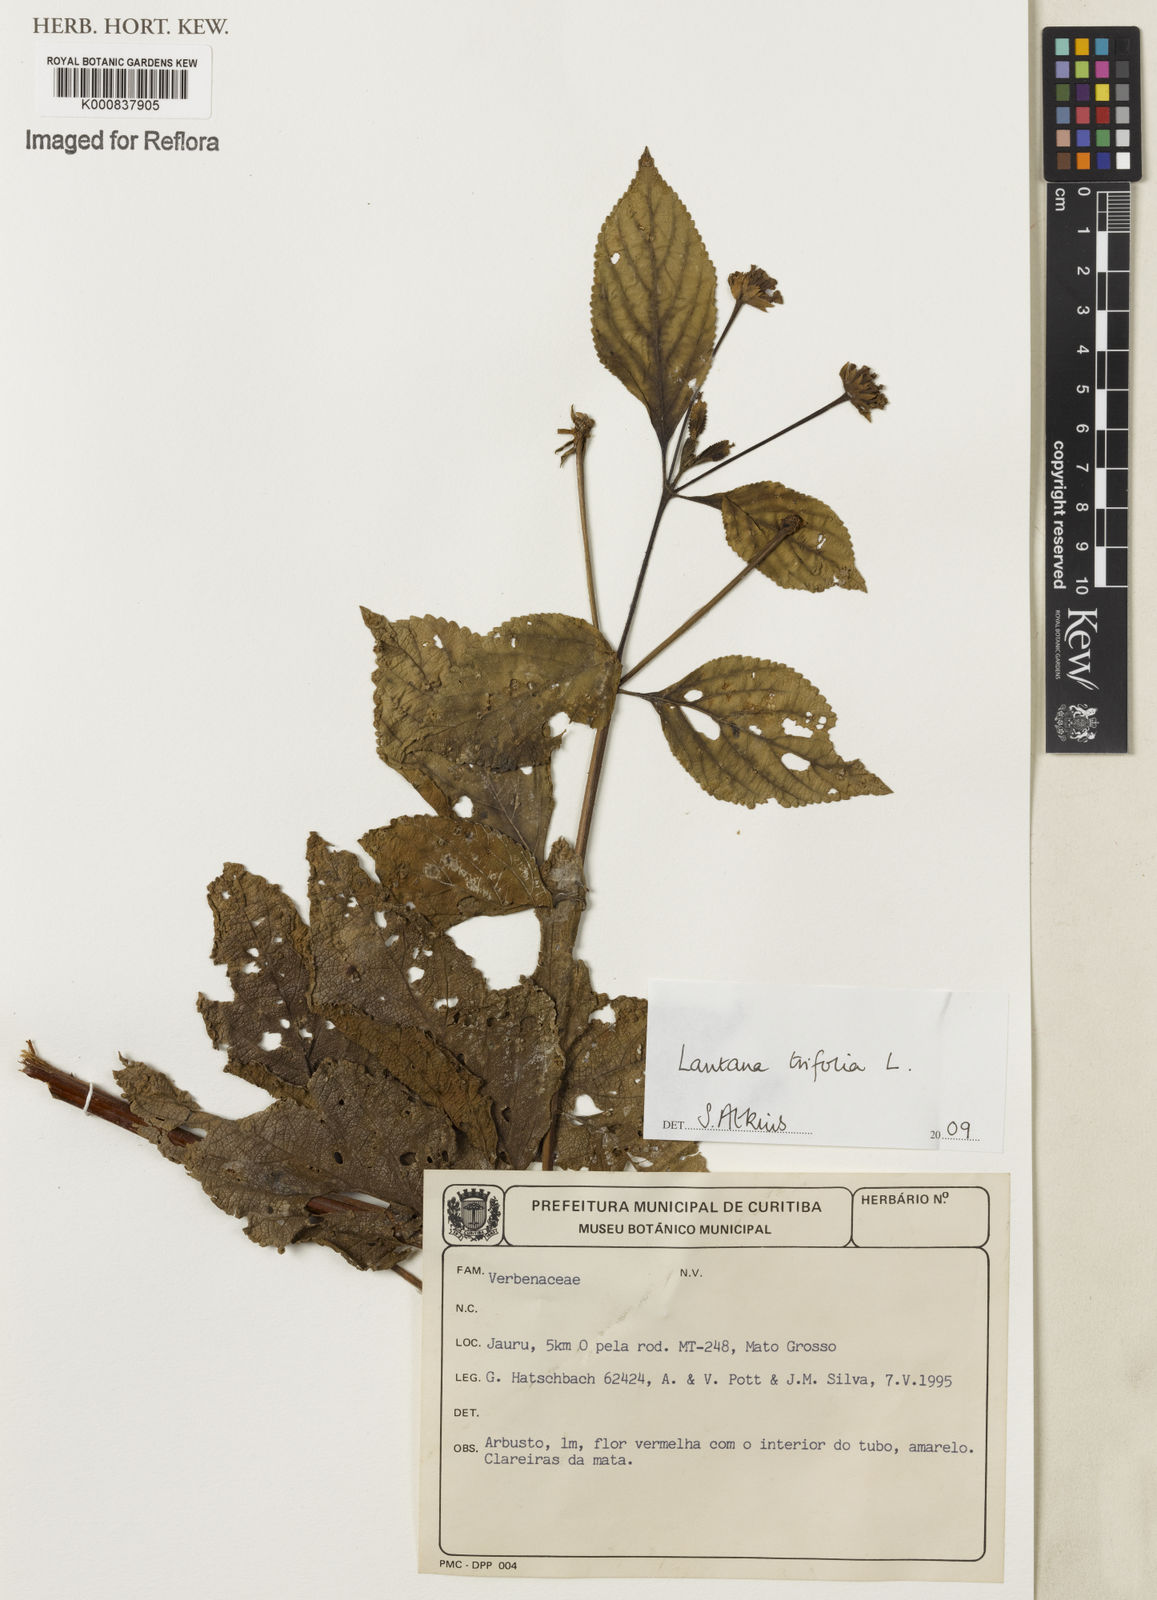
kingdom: Plantae
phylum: Tracheophyta
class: Magnoliopsida
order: Lamiales
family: Verbenaceae
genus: Lantana
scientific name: Lantana trifolia
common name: Sweet-sage
